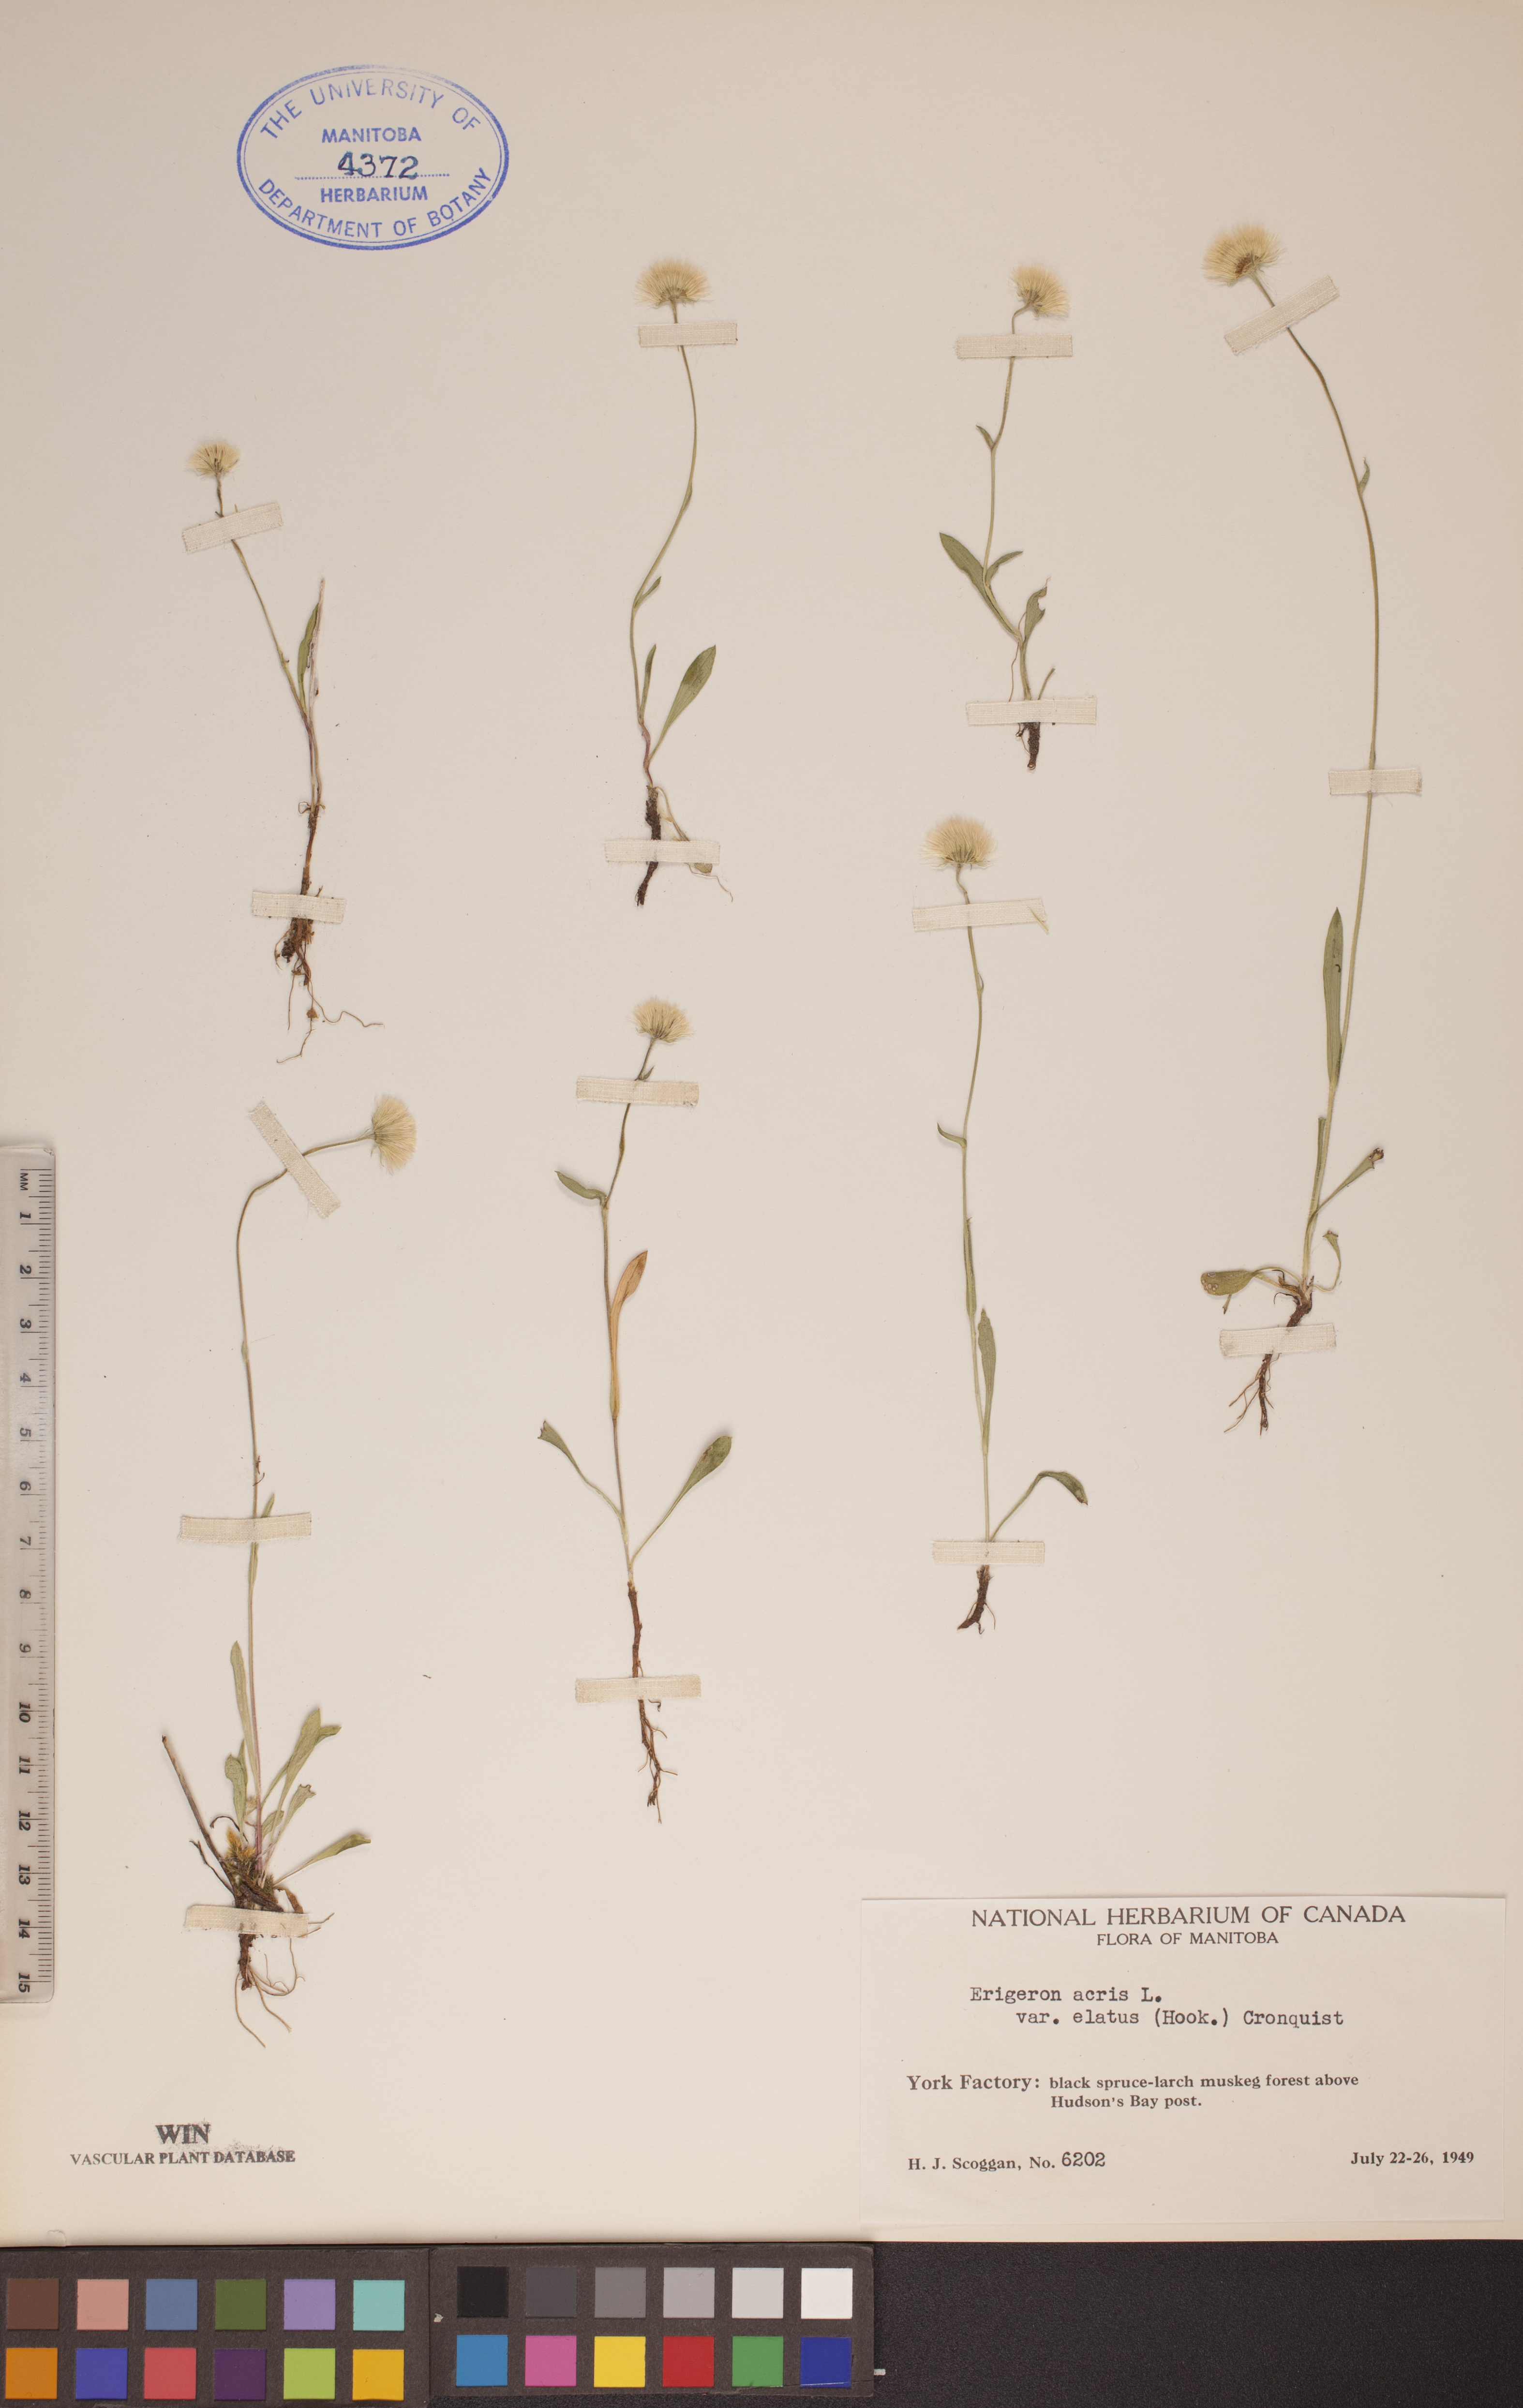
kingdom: Plantae
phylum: Tracheophyta
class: Magnoliopsida
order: Asterales
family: Asteraceae
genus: Erigeron
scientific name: Erigeron elatus
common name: Swamp fleabane
